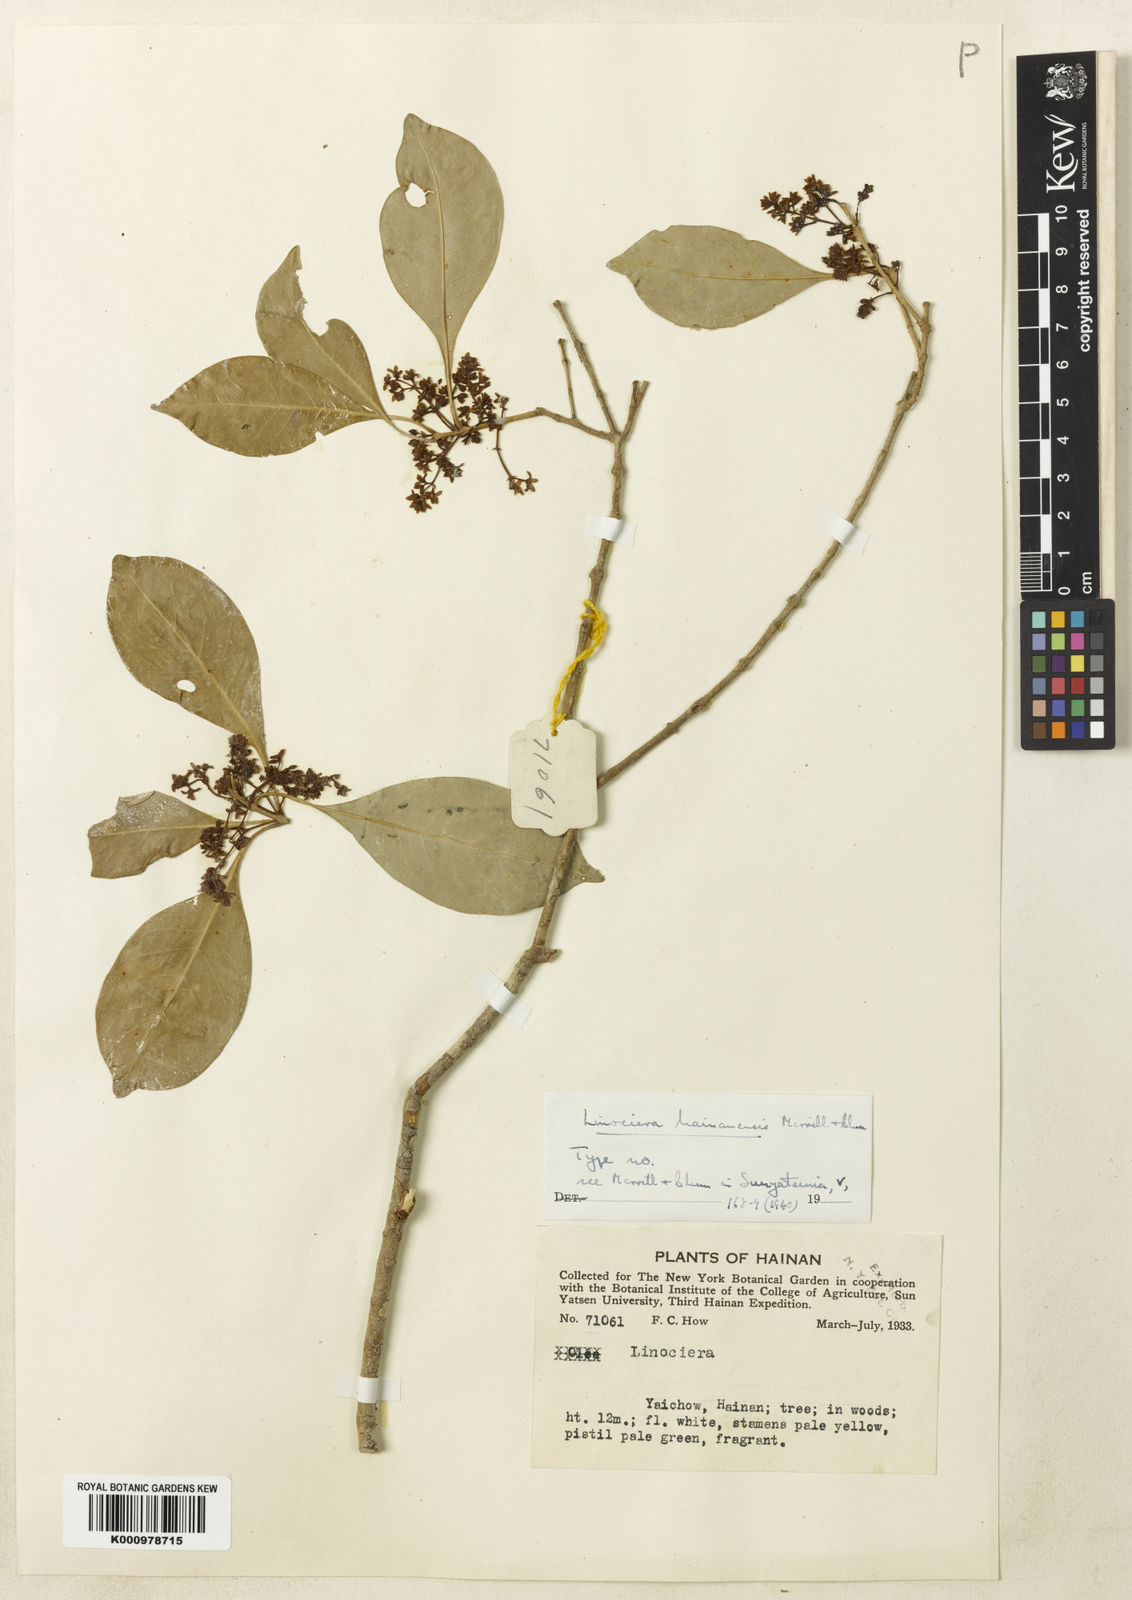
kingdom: Plantae
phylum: Tracheophyta
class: Magnoliopsida
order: Lamiales
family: Oleaceae
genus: Chionanthus
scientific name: Chionanthus hainanensis
